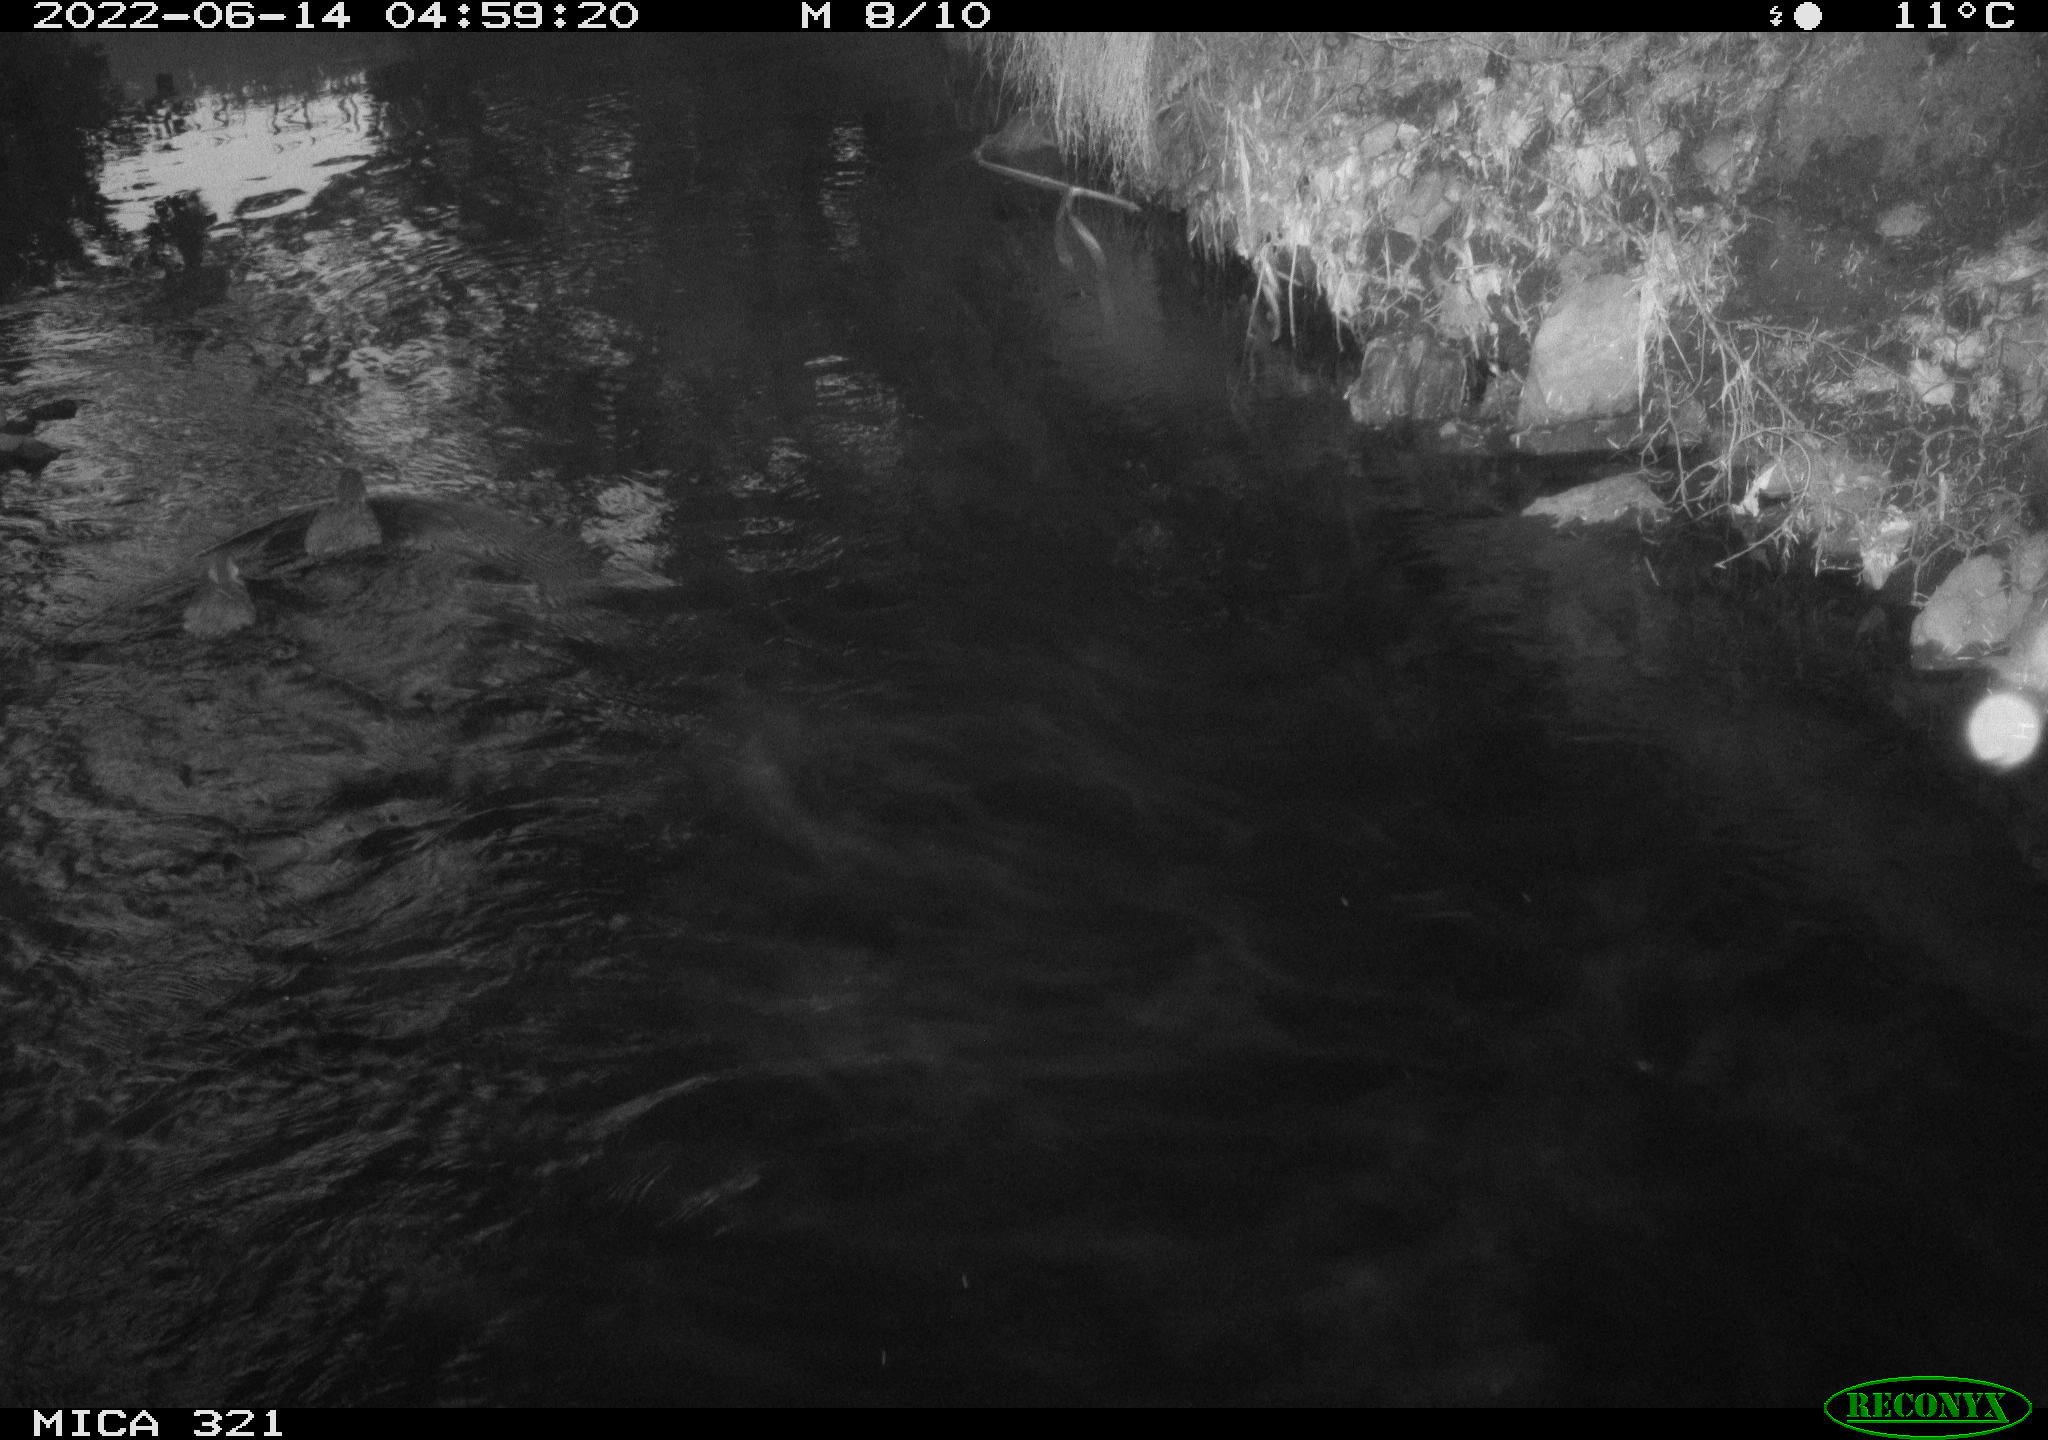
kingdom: Animalia
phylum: Chordata
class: Aves
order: Anseriformes
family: Anatidae
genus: Mareca
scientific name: Mareca strepera
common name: Gadwall
